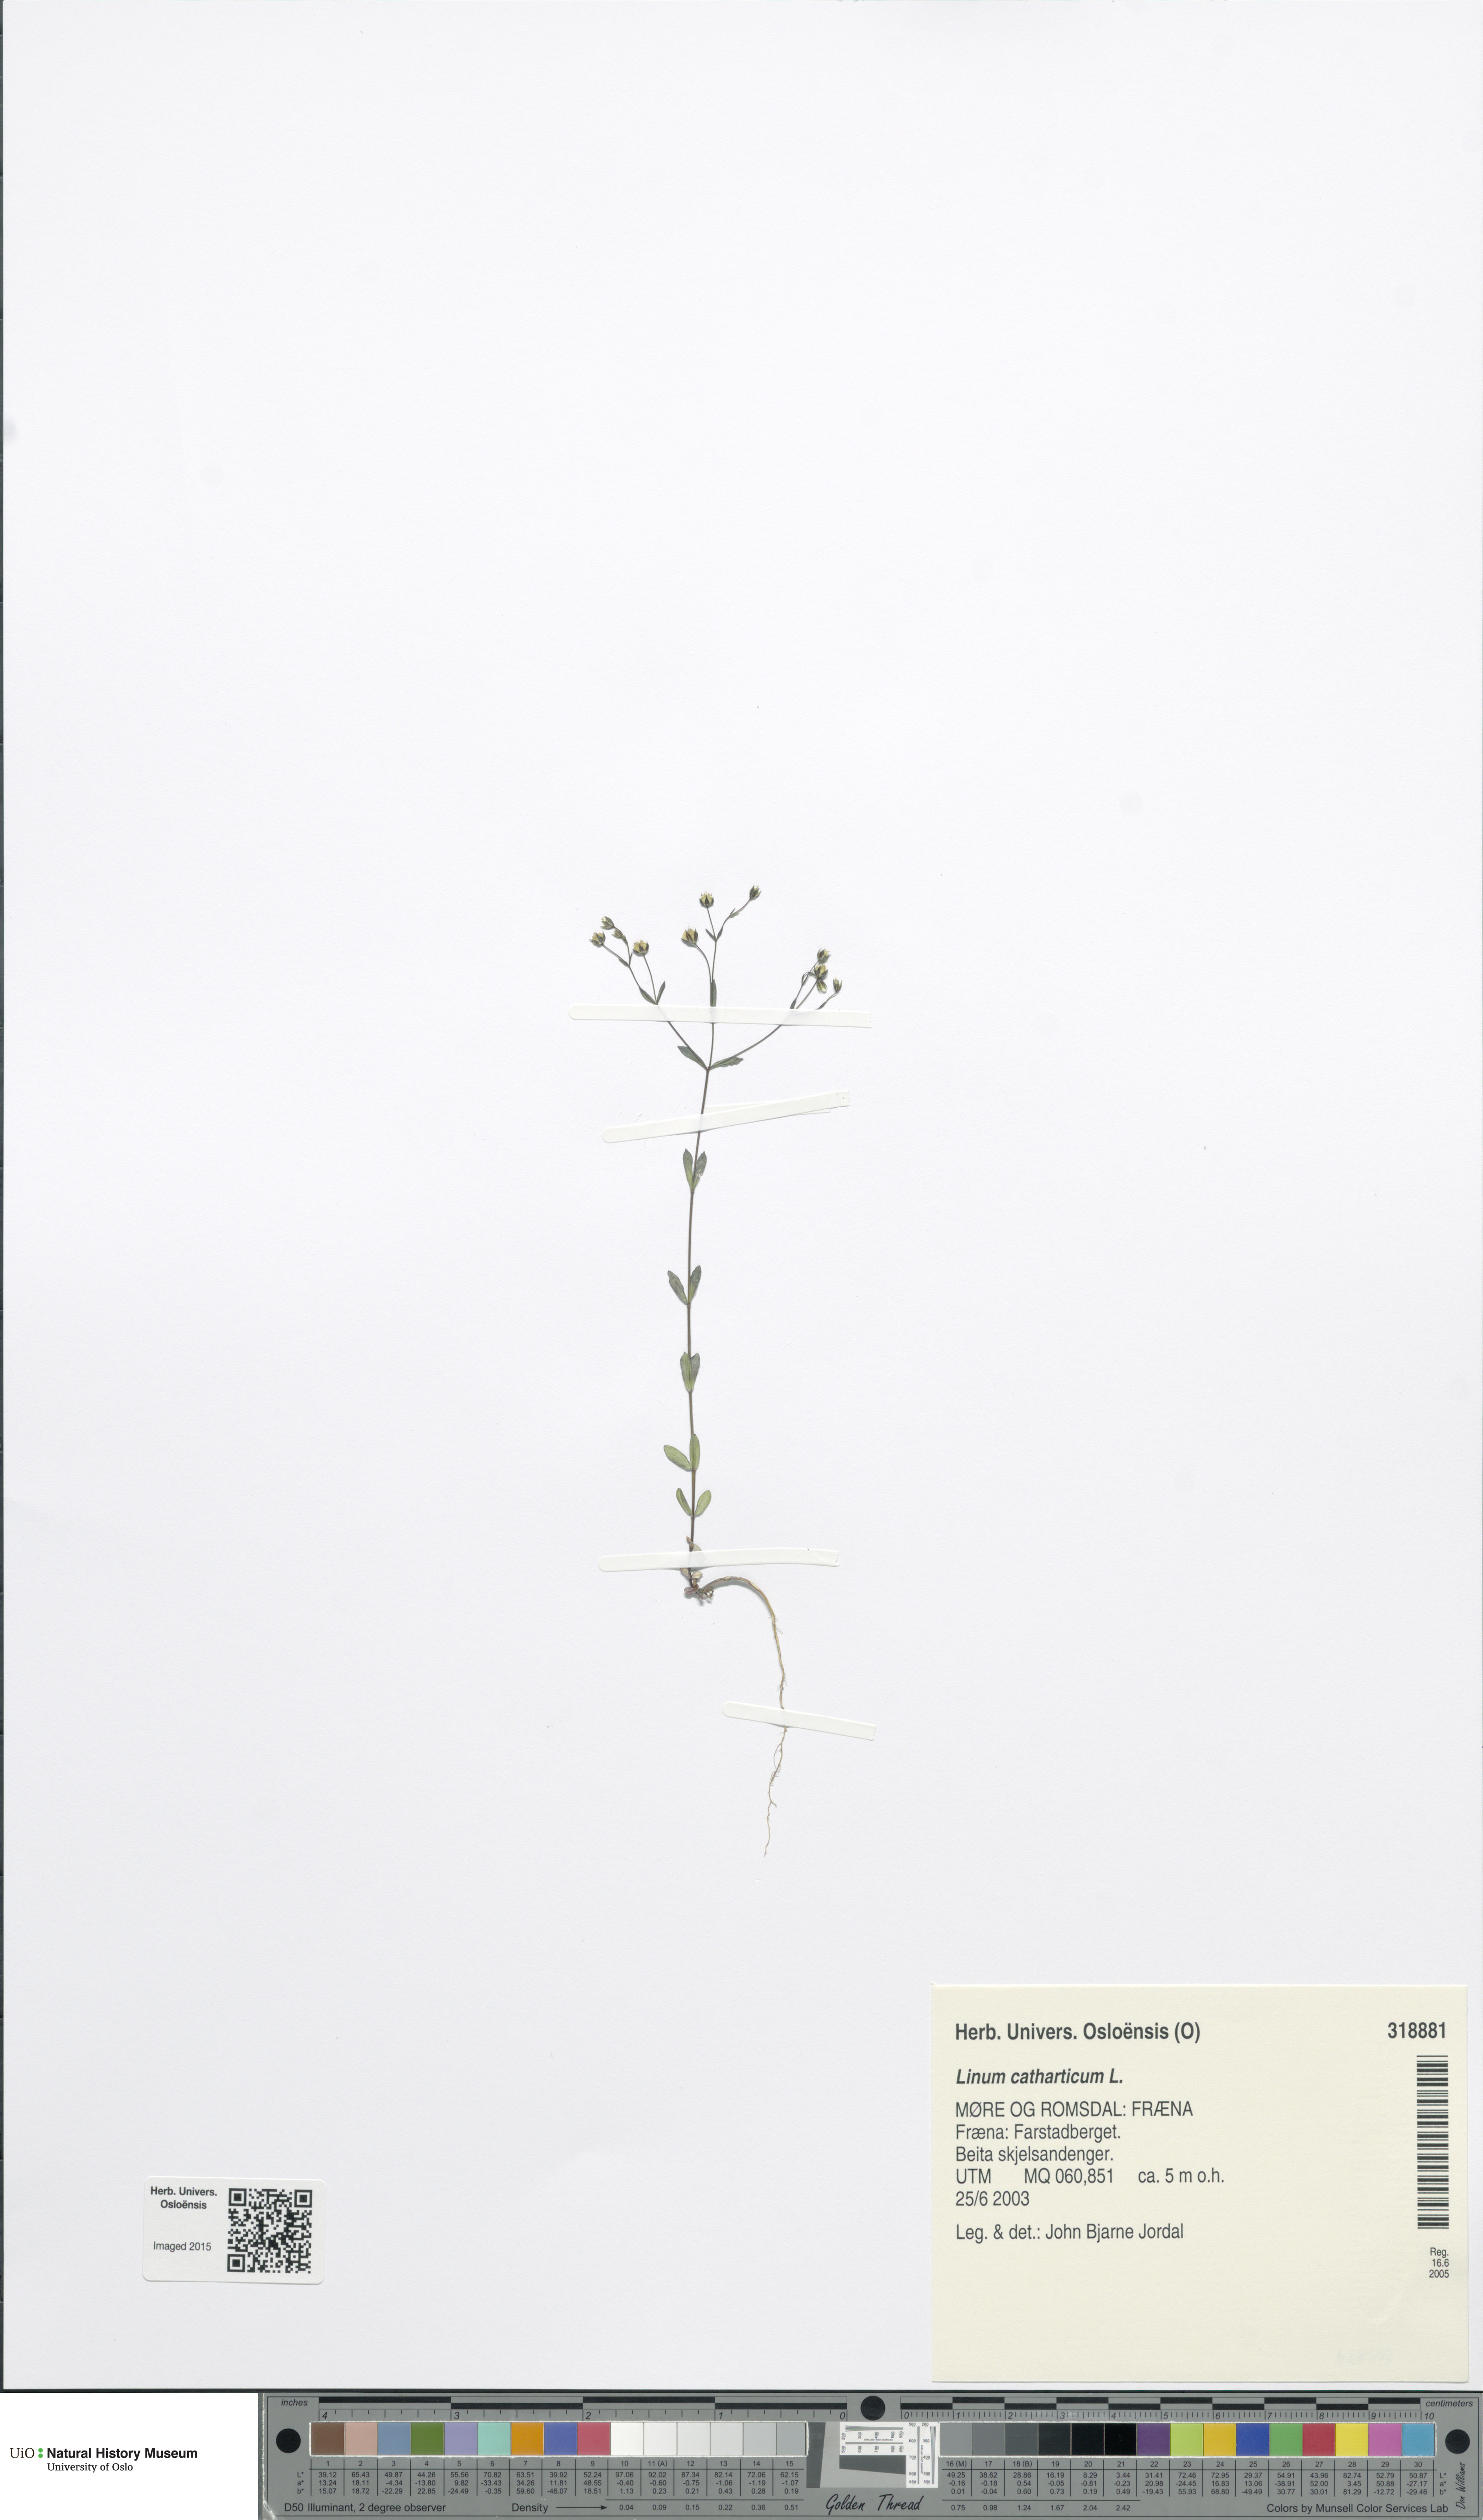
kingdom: Plantae
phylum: Tracheophyta
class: Magnoliopsida
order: Malpighiales
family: Linaceae
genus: Linum
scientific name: Linum catharticum
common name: Fairy flax
